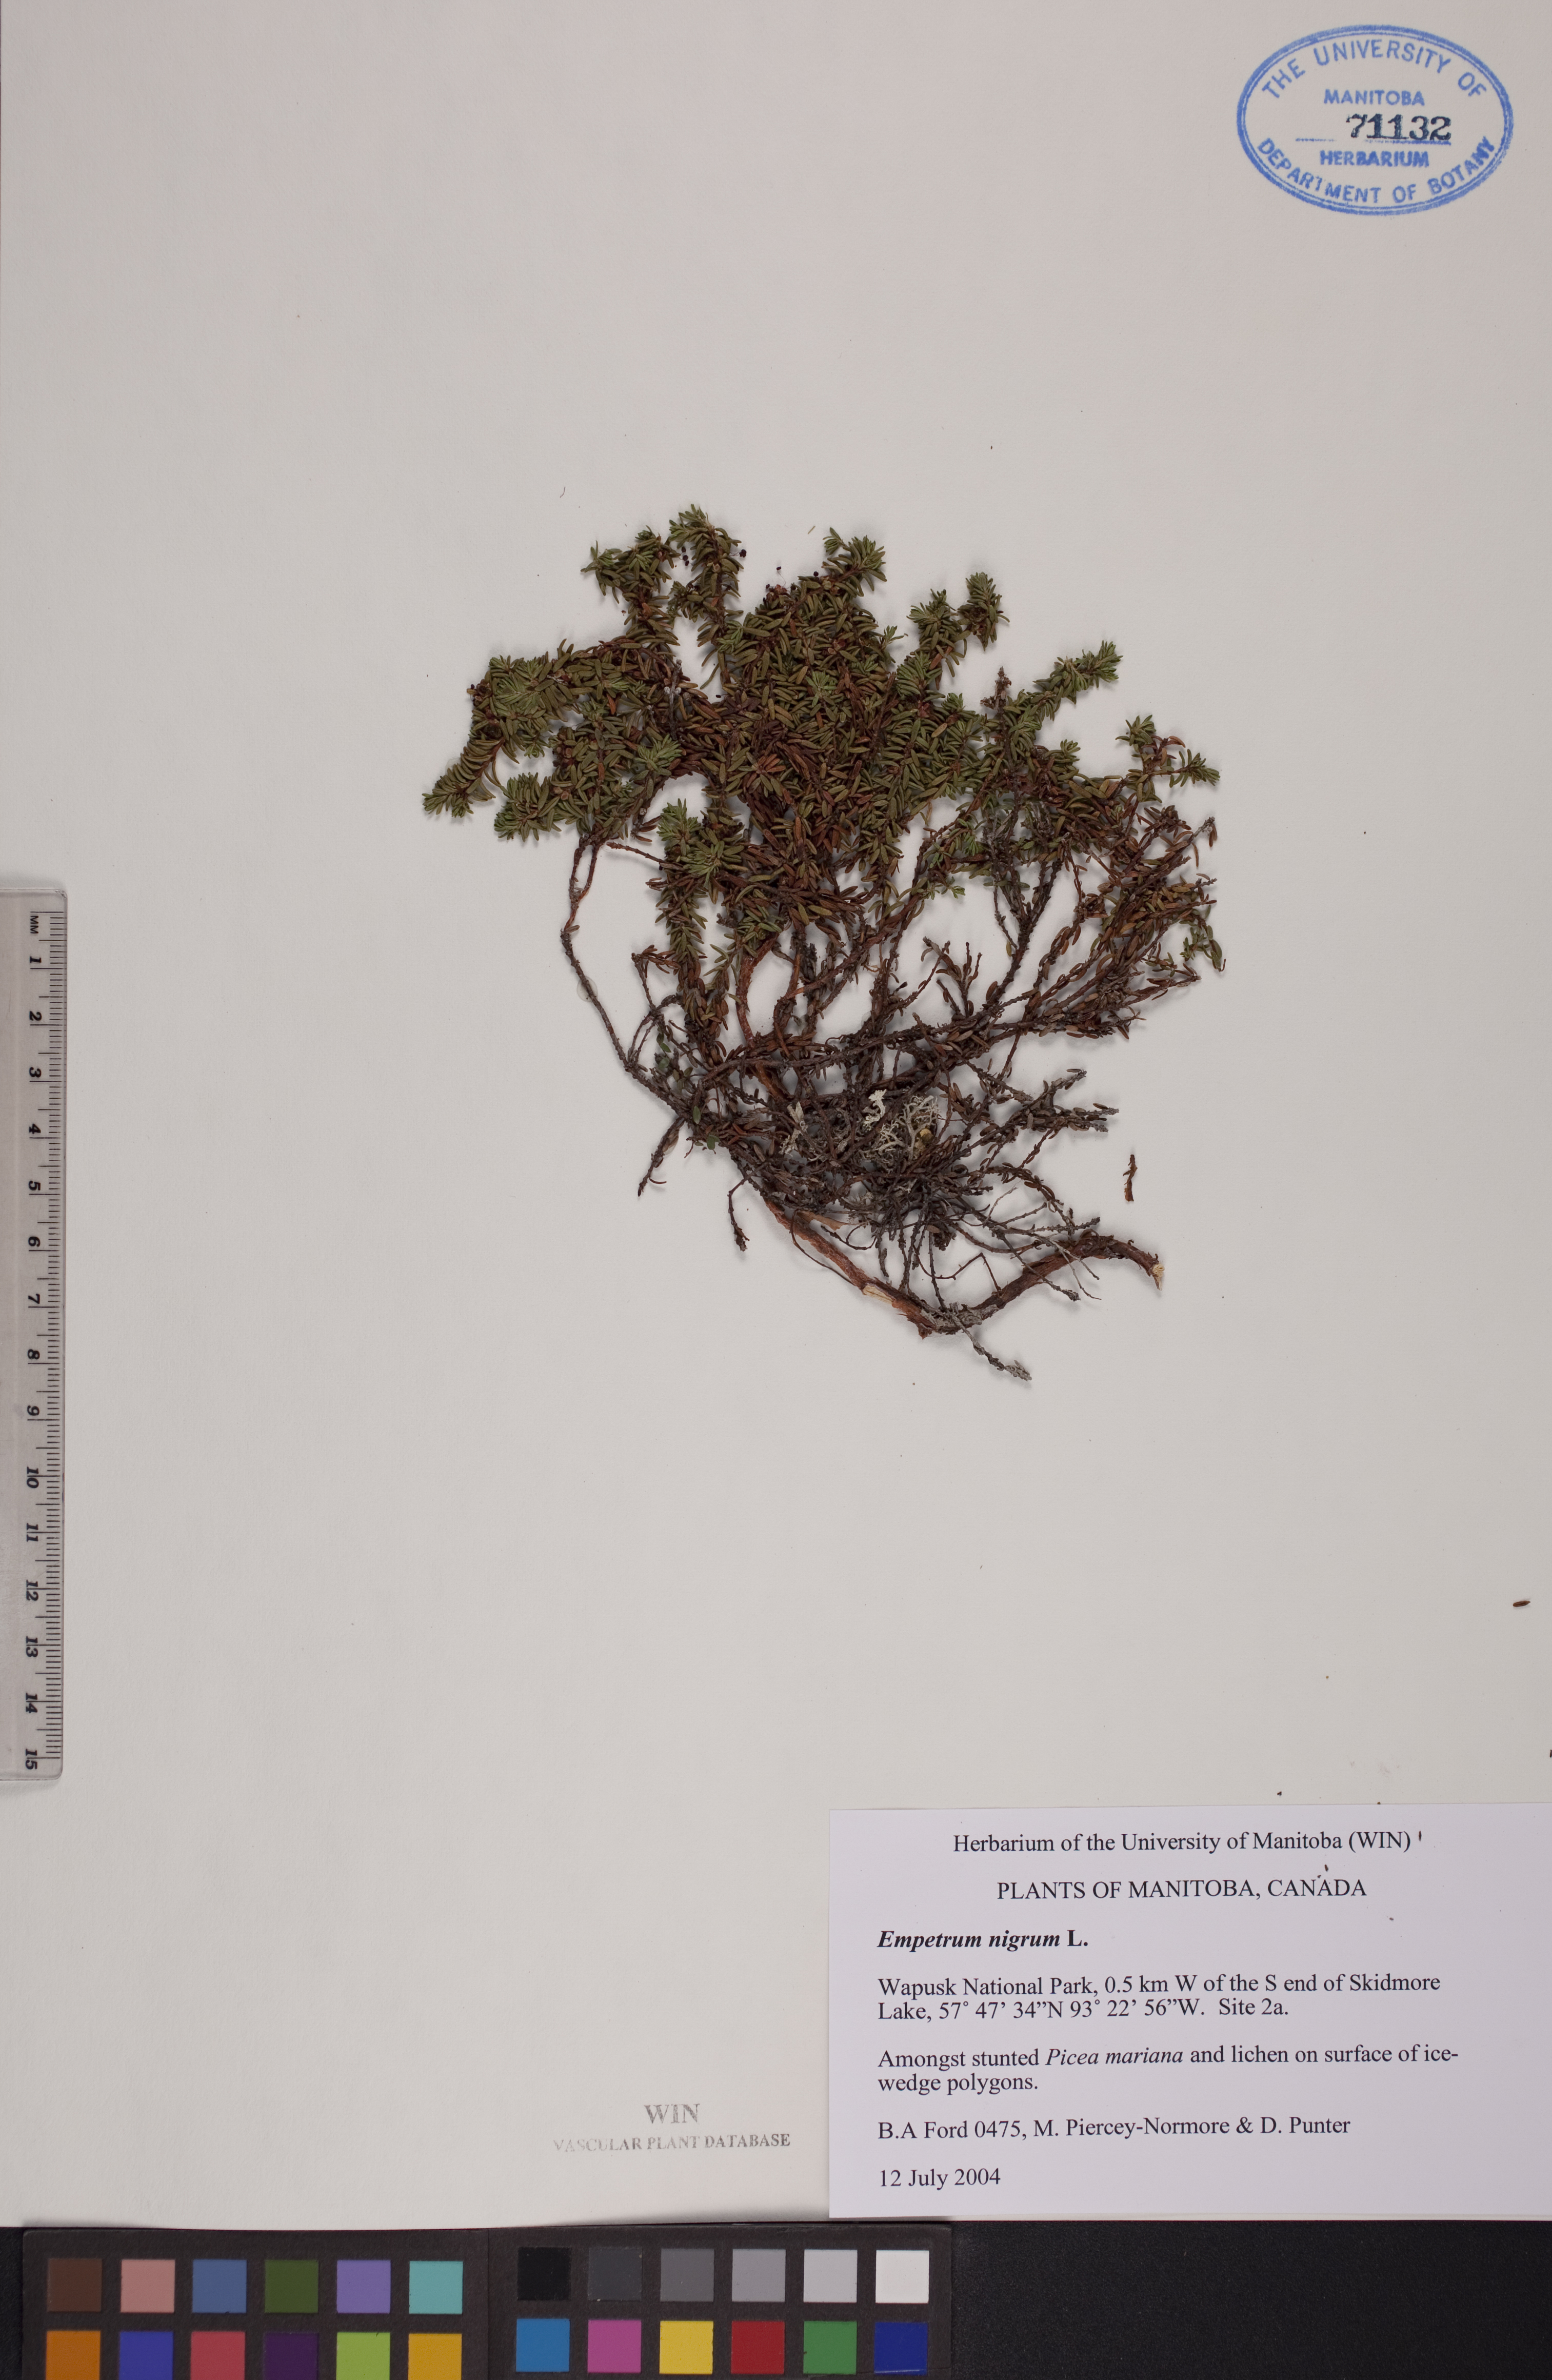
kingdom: Plantae
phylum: Tracheophyta
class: Magnoliopsida
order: Ericales
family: Ericaceae
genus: Empetrum
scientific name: Empetrum nigrum
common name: Black crowberry
